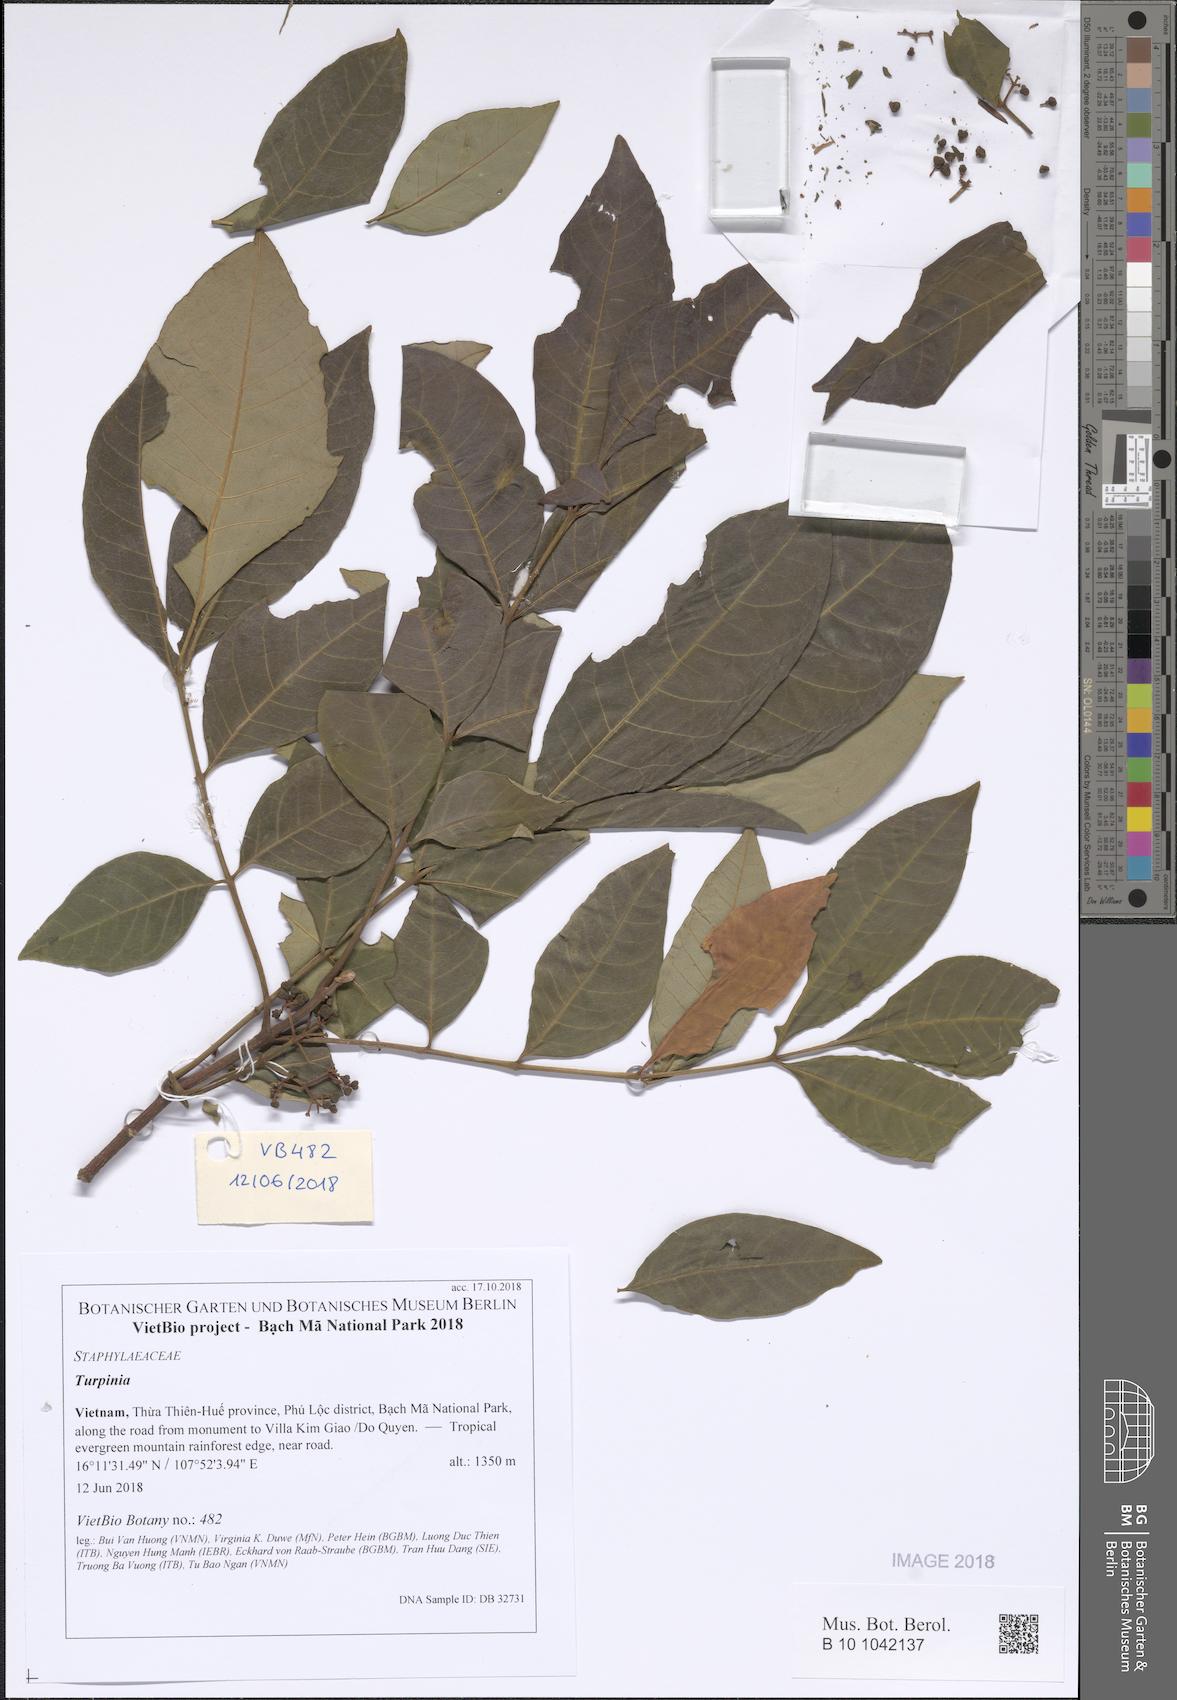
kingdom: Plantae
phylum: Tracheophyta
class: Magnoliopsida
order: Crossosomatales
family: Staphyleaceae
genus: Turpinia
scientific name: Turpinia
